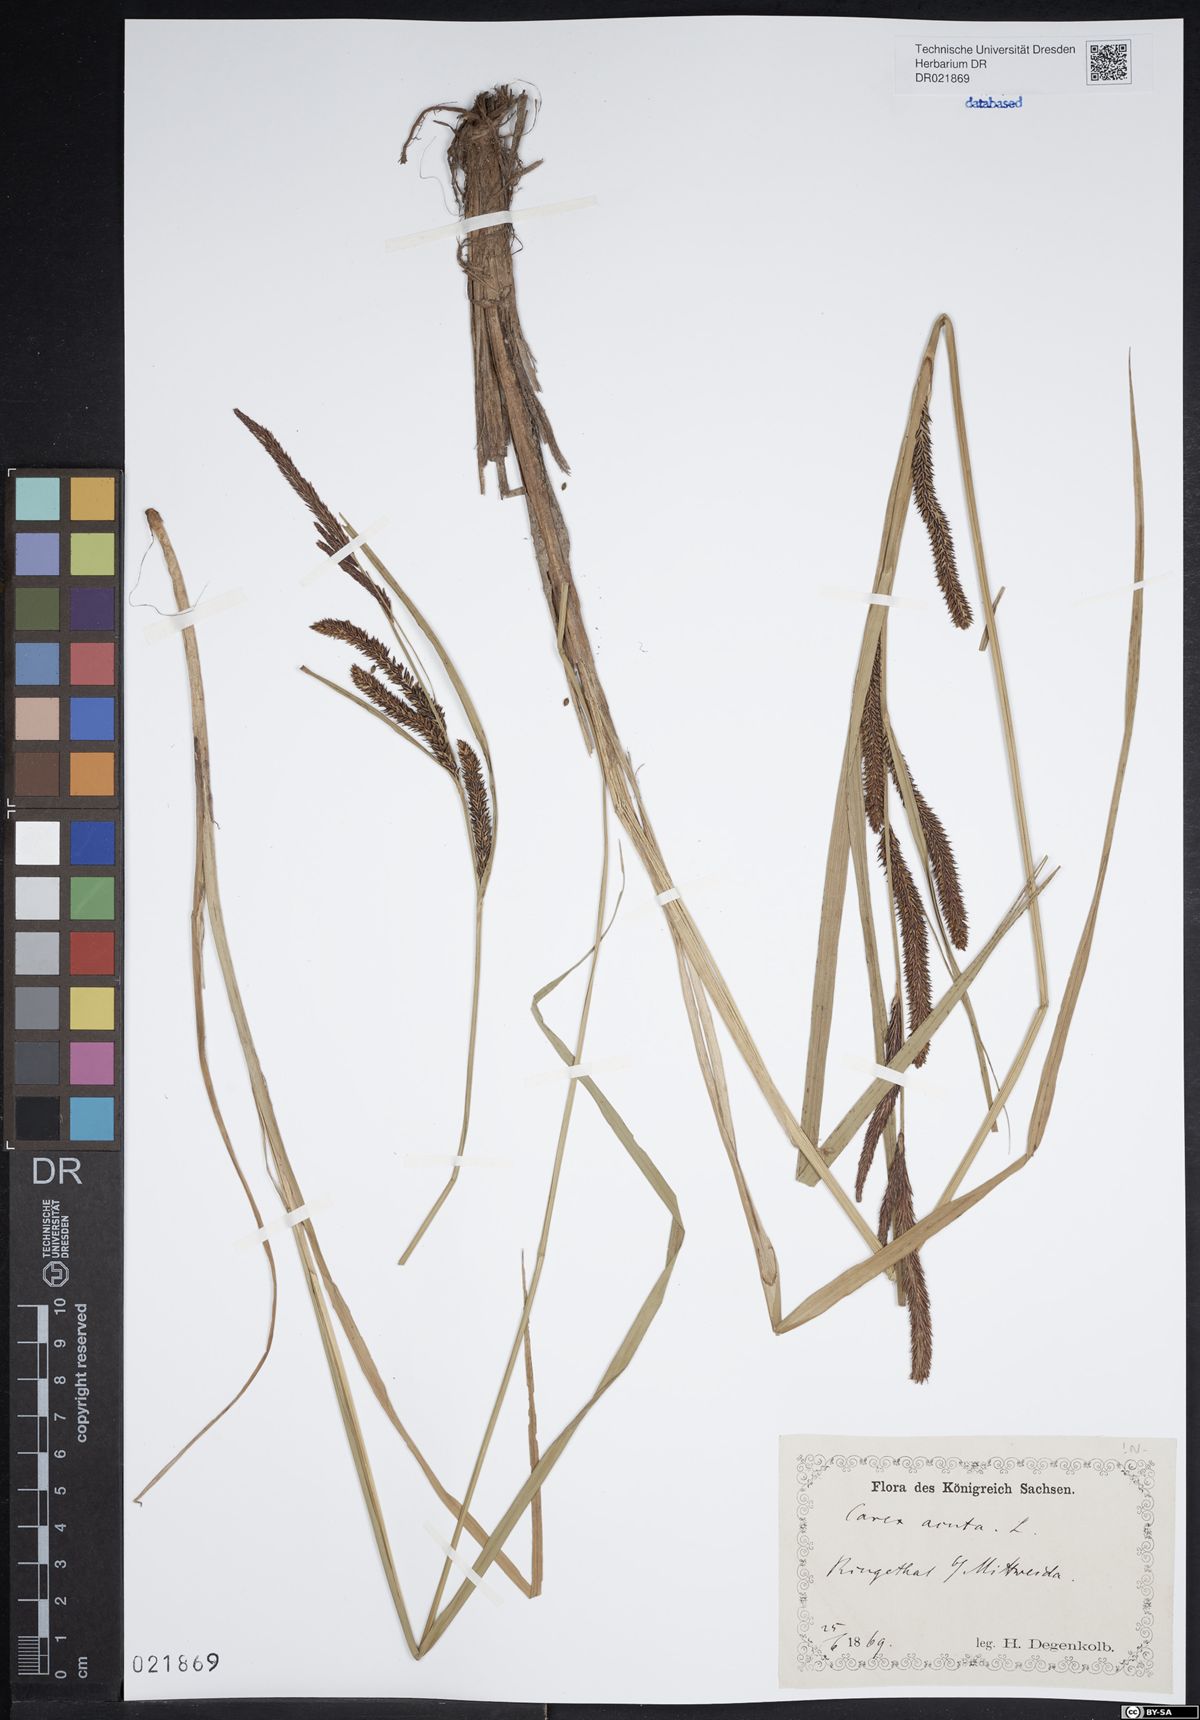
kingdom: Plantae
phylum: Tracheophyta
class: Liliopsida
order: Poales
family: Cyperaceae
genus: Carex
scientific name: Carex acuta
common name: Slender tufted-sedge
